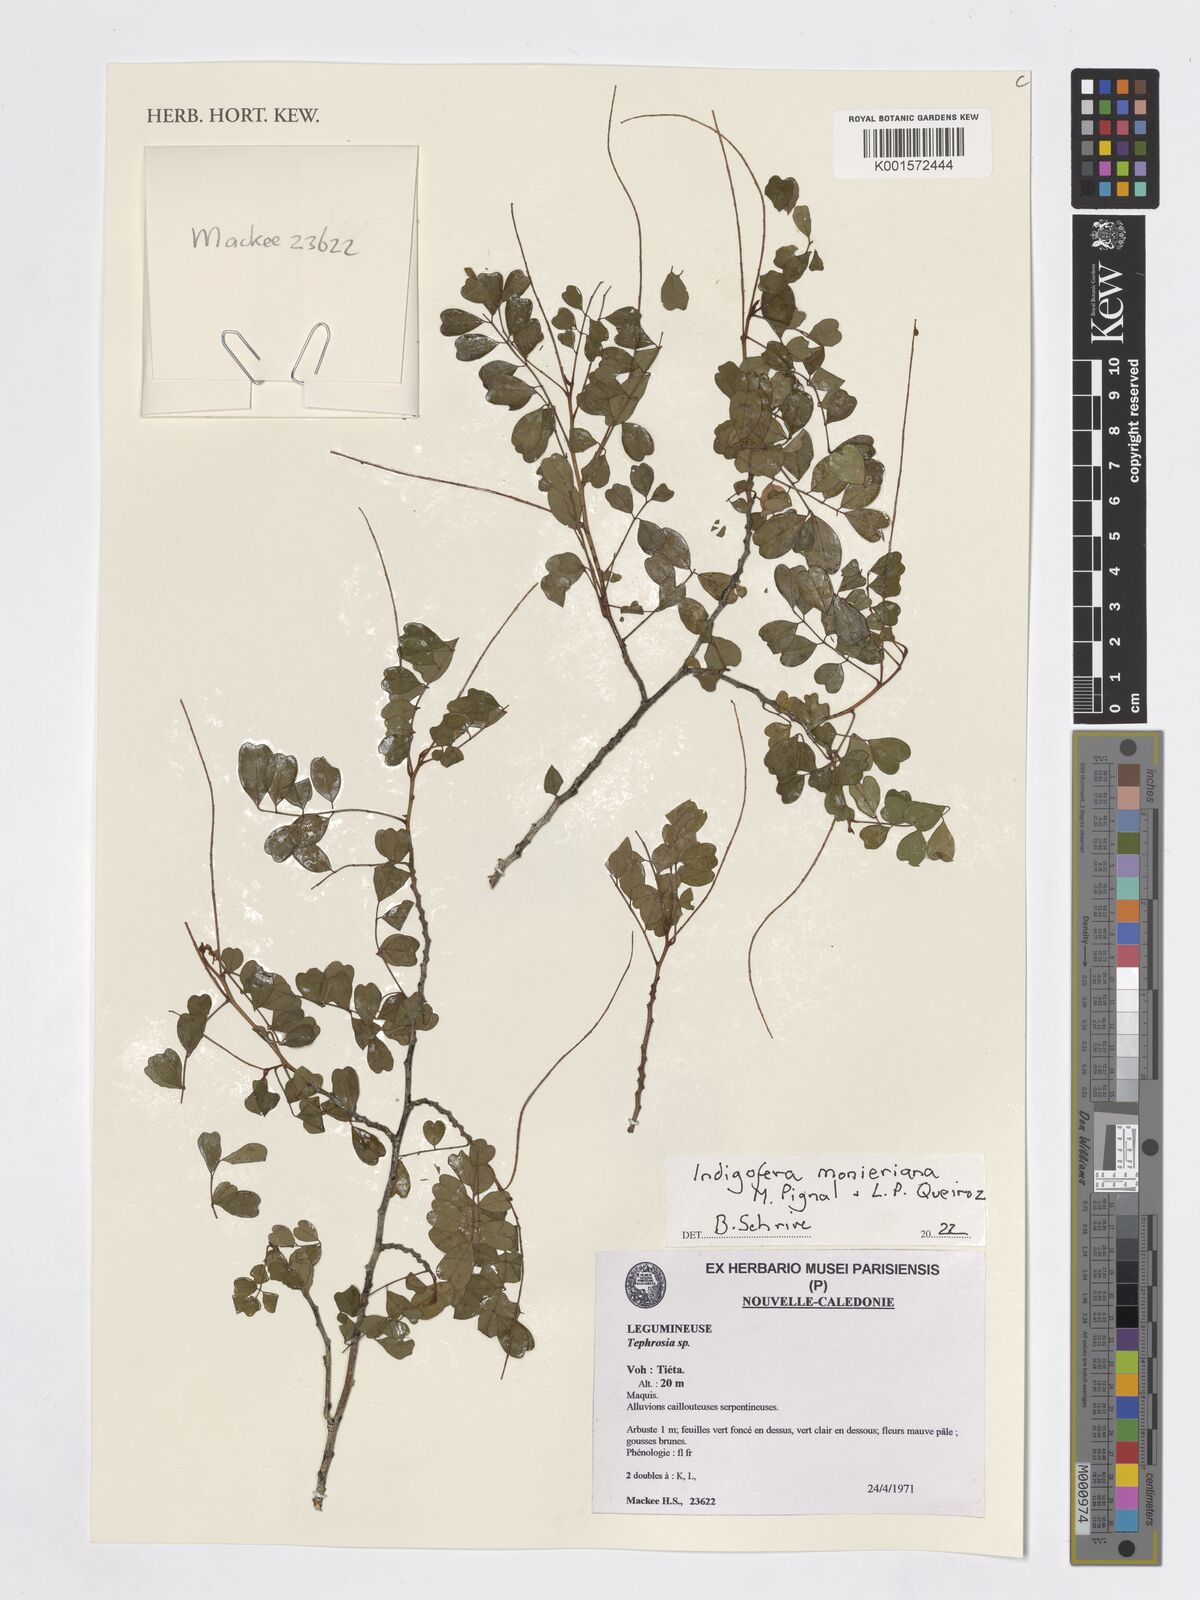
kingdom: Plantae
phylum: Tracheophyta
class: Magnoliopsida
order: Fabales
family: Fabaceae
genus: Indigofera
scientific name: Indigofera monieriana
